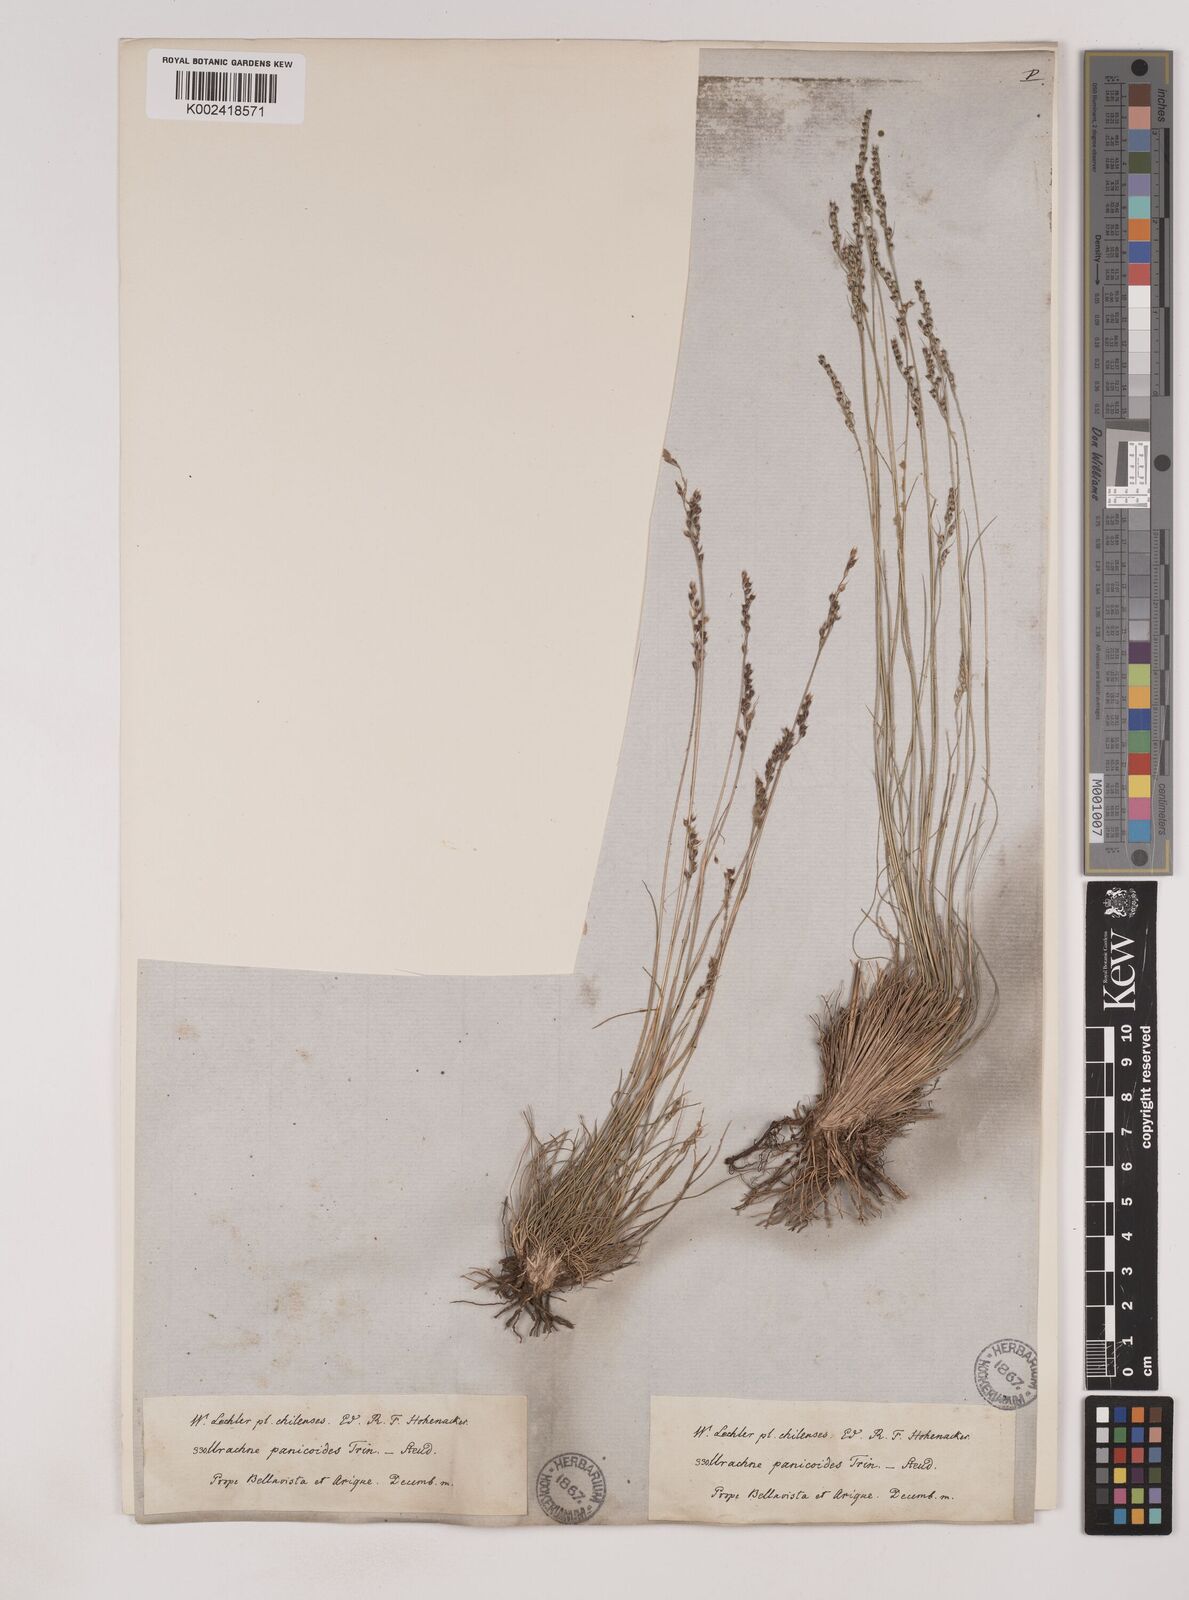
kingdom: Plantae
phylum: Tracheophyta
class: Liliopsida
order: Poales
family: Poaceae
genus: Piptochaetium
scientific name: Piptochaetium montevidense
